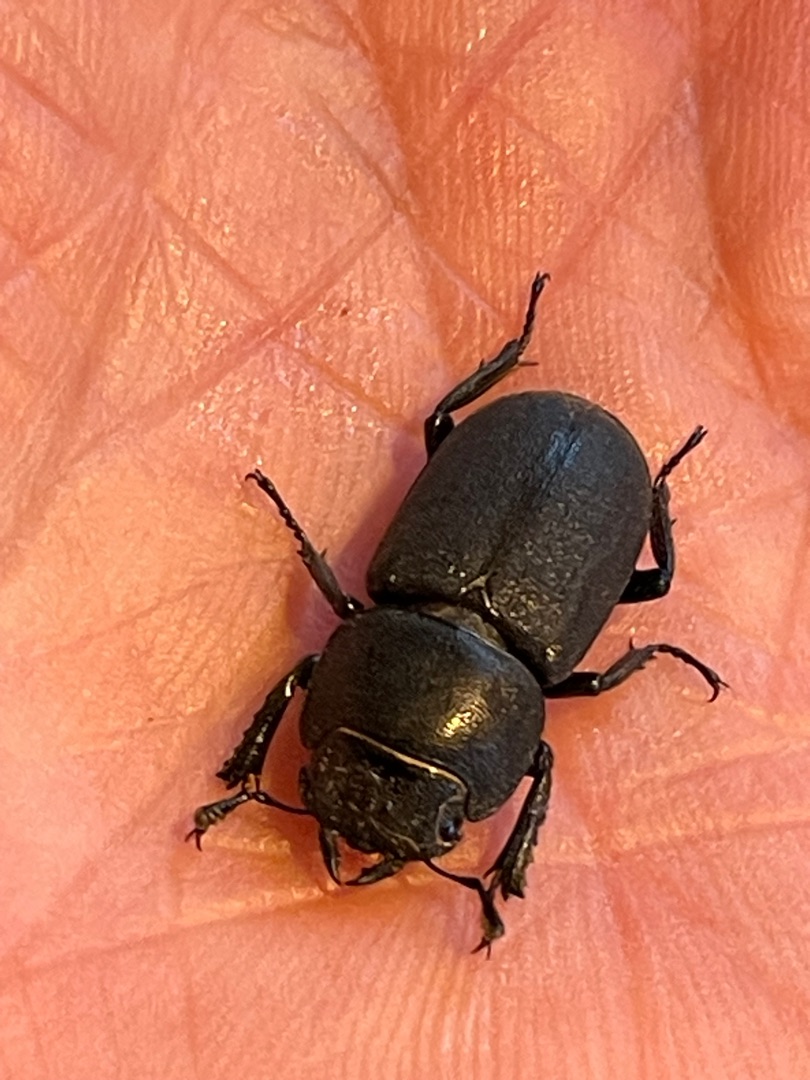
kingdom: Animalia
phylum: Arthropoda
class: Insecta
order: Coleoptera
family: Lucanidae
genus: Dorcus
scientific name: Dorcus parallelipipedus
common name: Bøghjort
